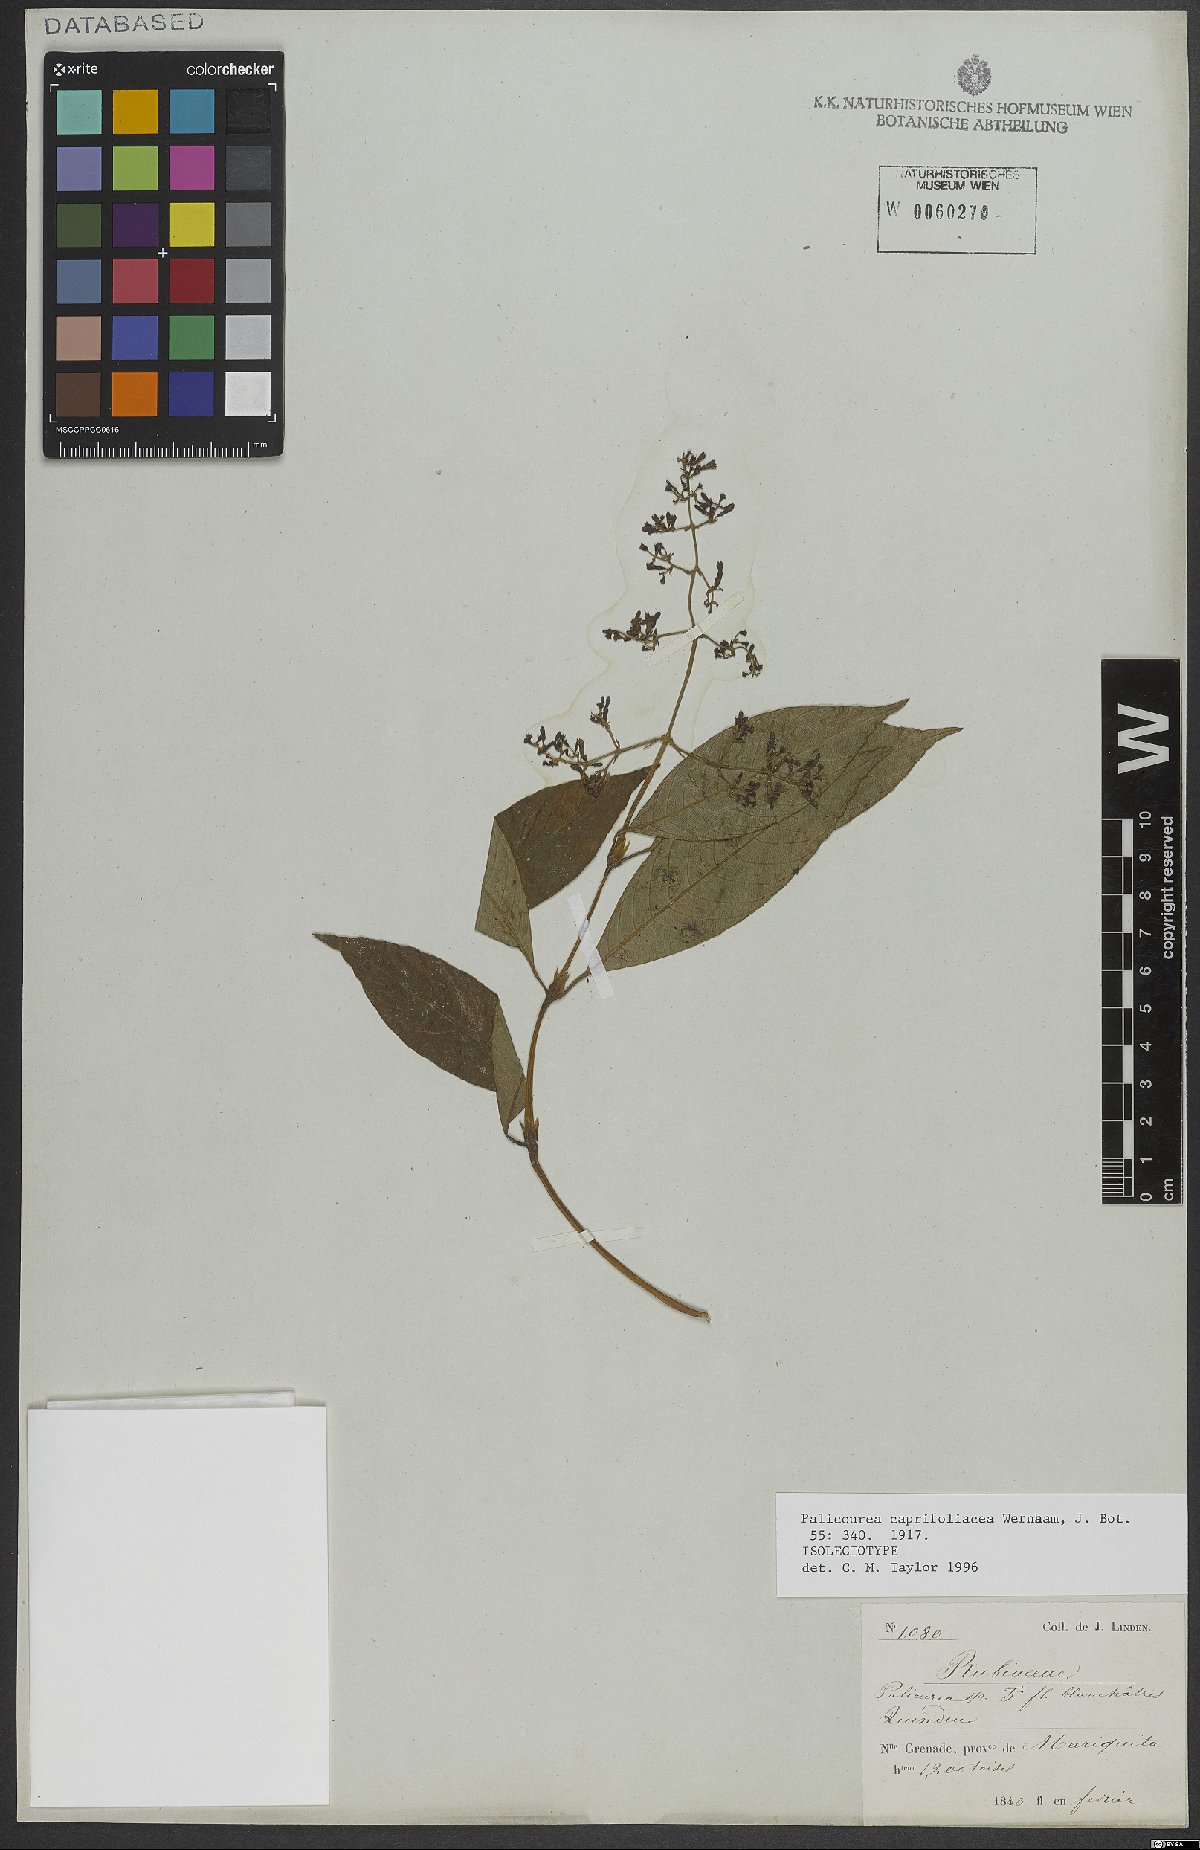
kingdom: Plantae
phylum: Tracheophyta
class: Magnoliopsida
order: Gentianales
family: Rubiaceae
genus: Palicourea
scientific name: Palicourea lyristipula
